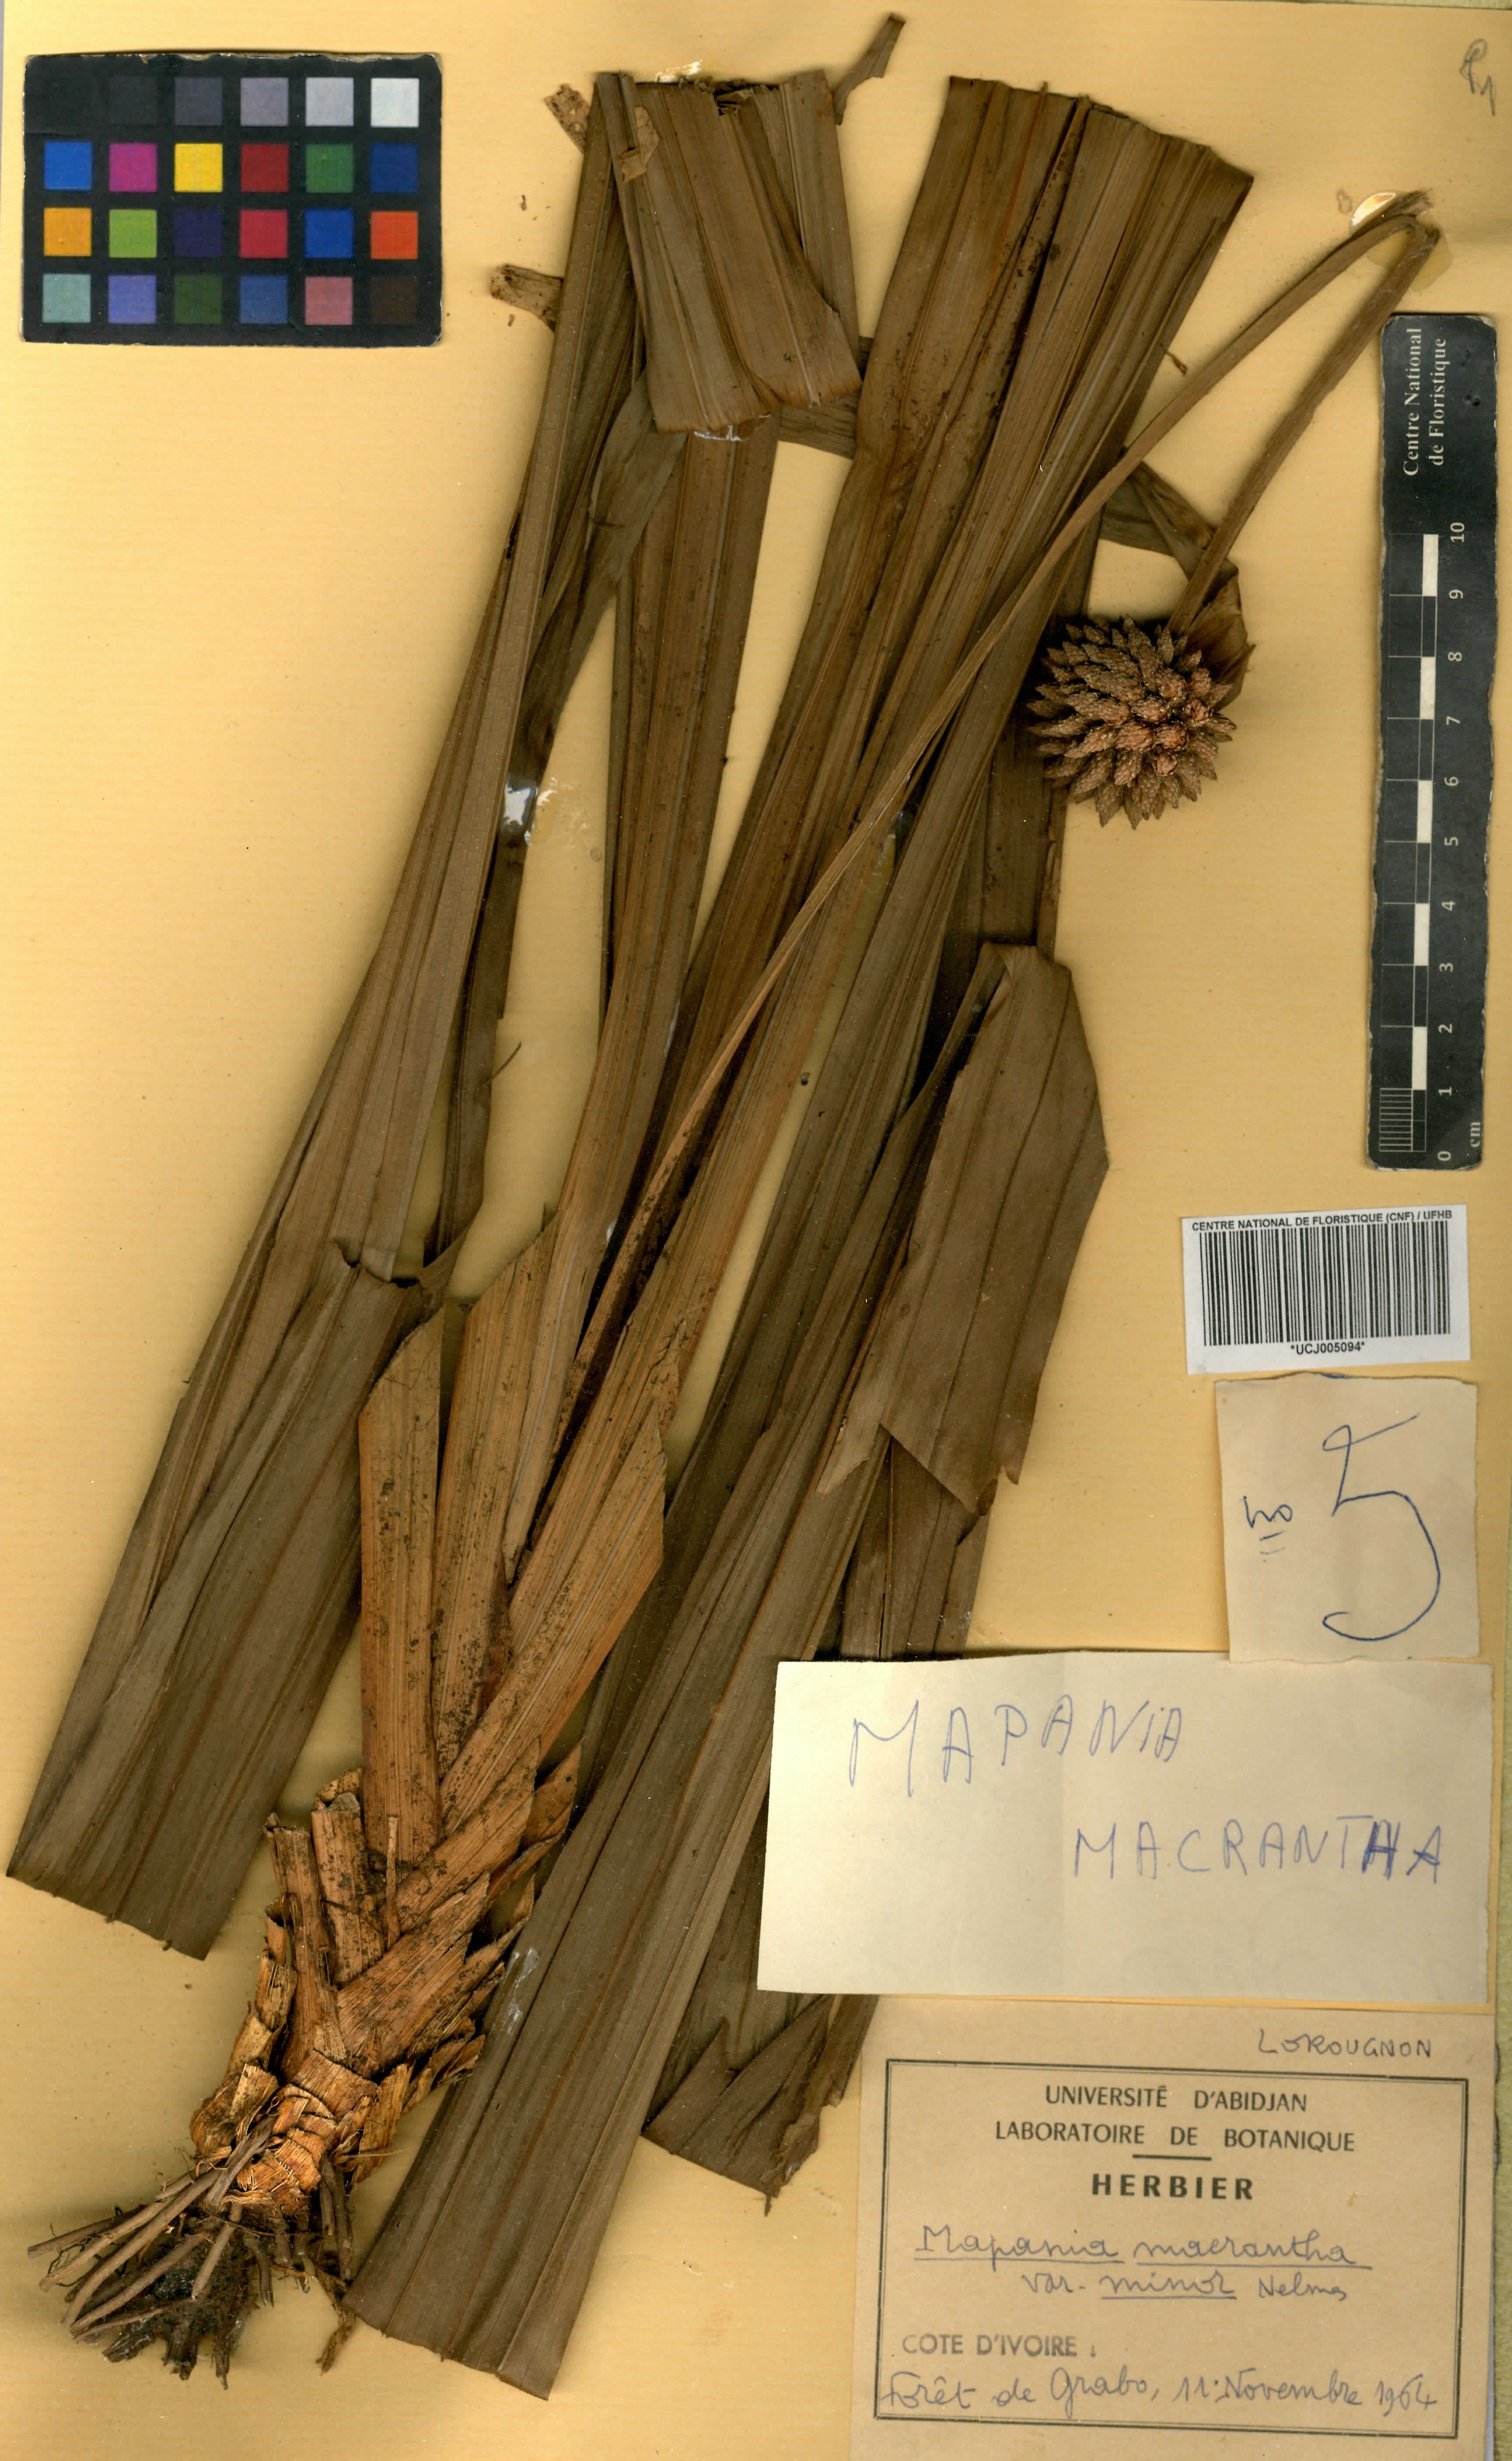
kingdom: Plantae
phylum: Tracheophyta
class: Liliopsida
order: Poales
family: Cyperaceae
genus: Mapania
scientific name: Mapania minor
